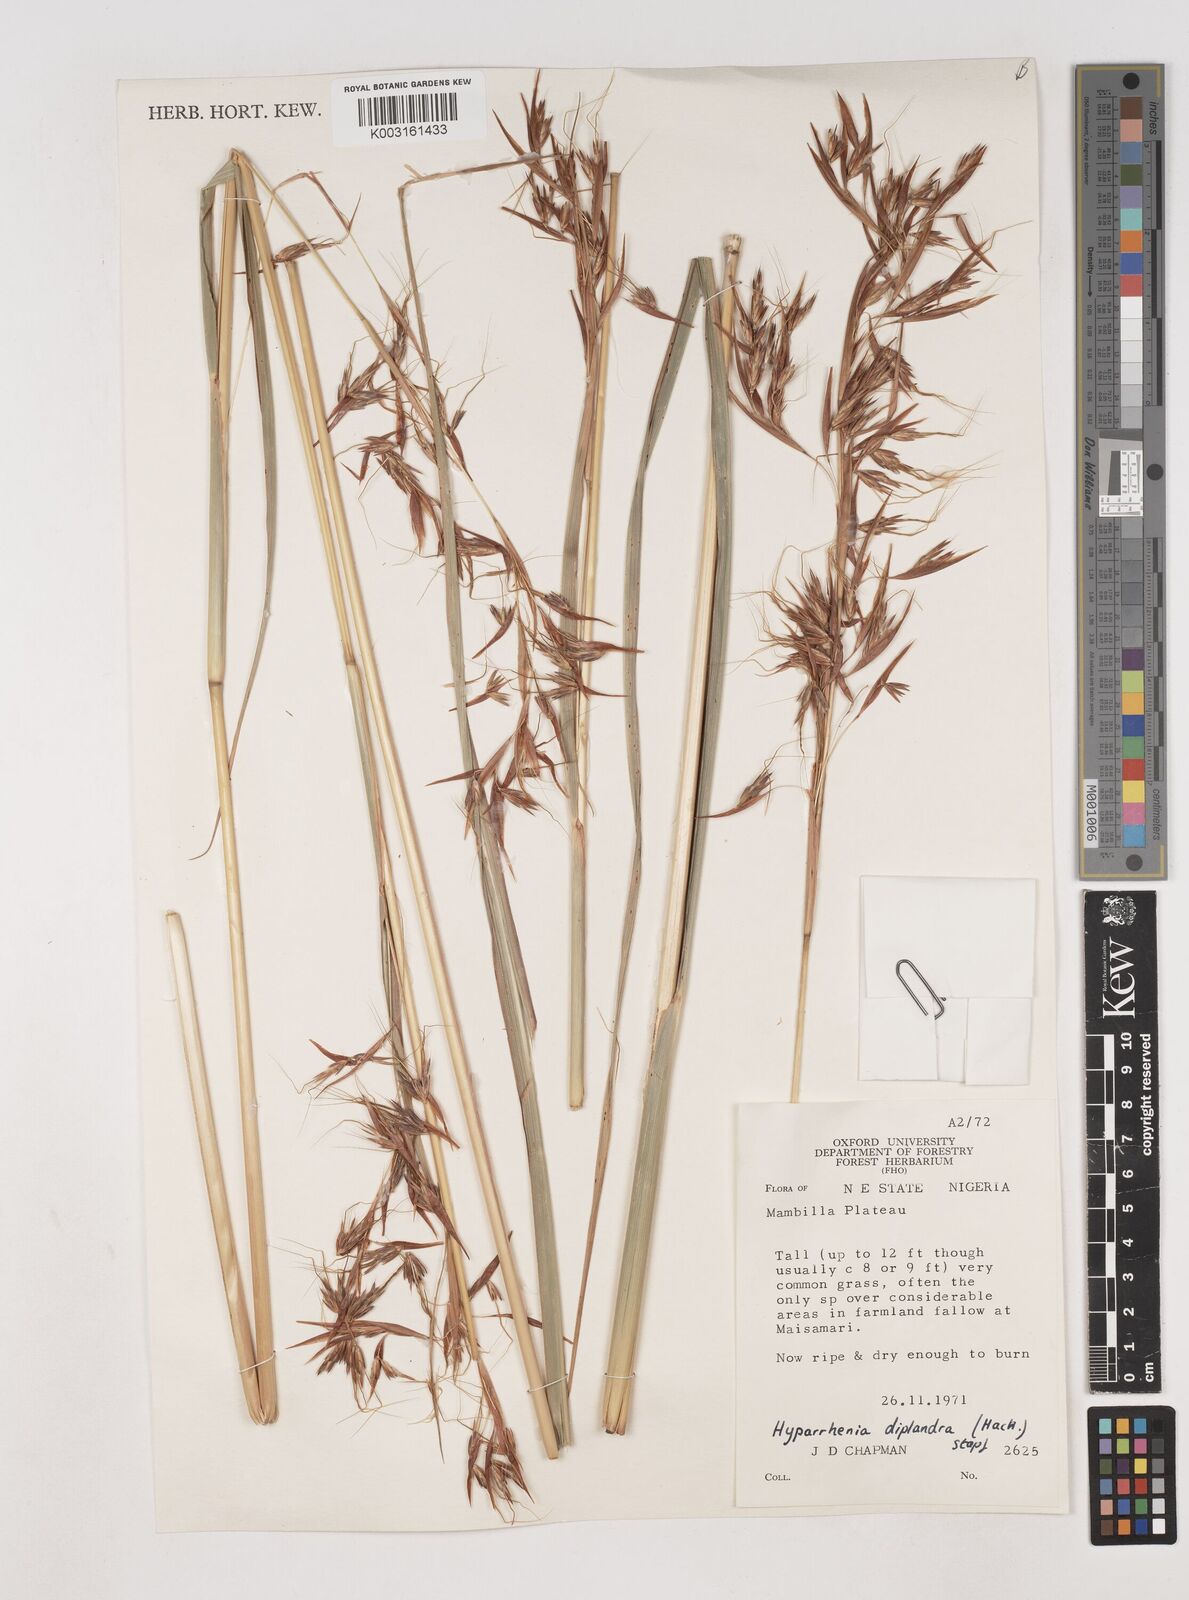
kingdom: Plantae
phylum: Tracheophyta
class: Liliopsida
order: Poales
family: Poaceae
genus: Hyparrhenia
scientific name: Hyparrhenia diplandra
